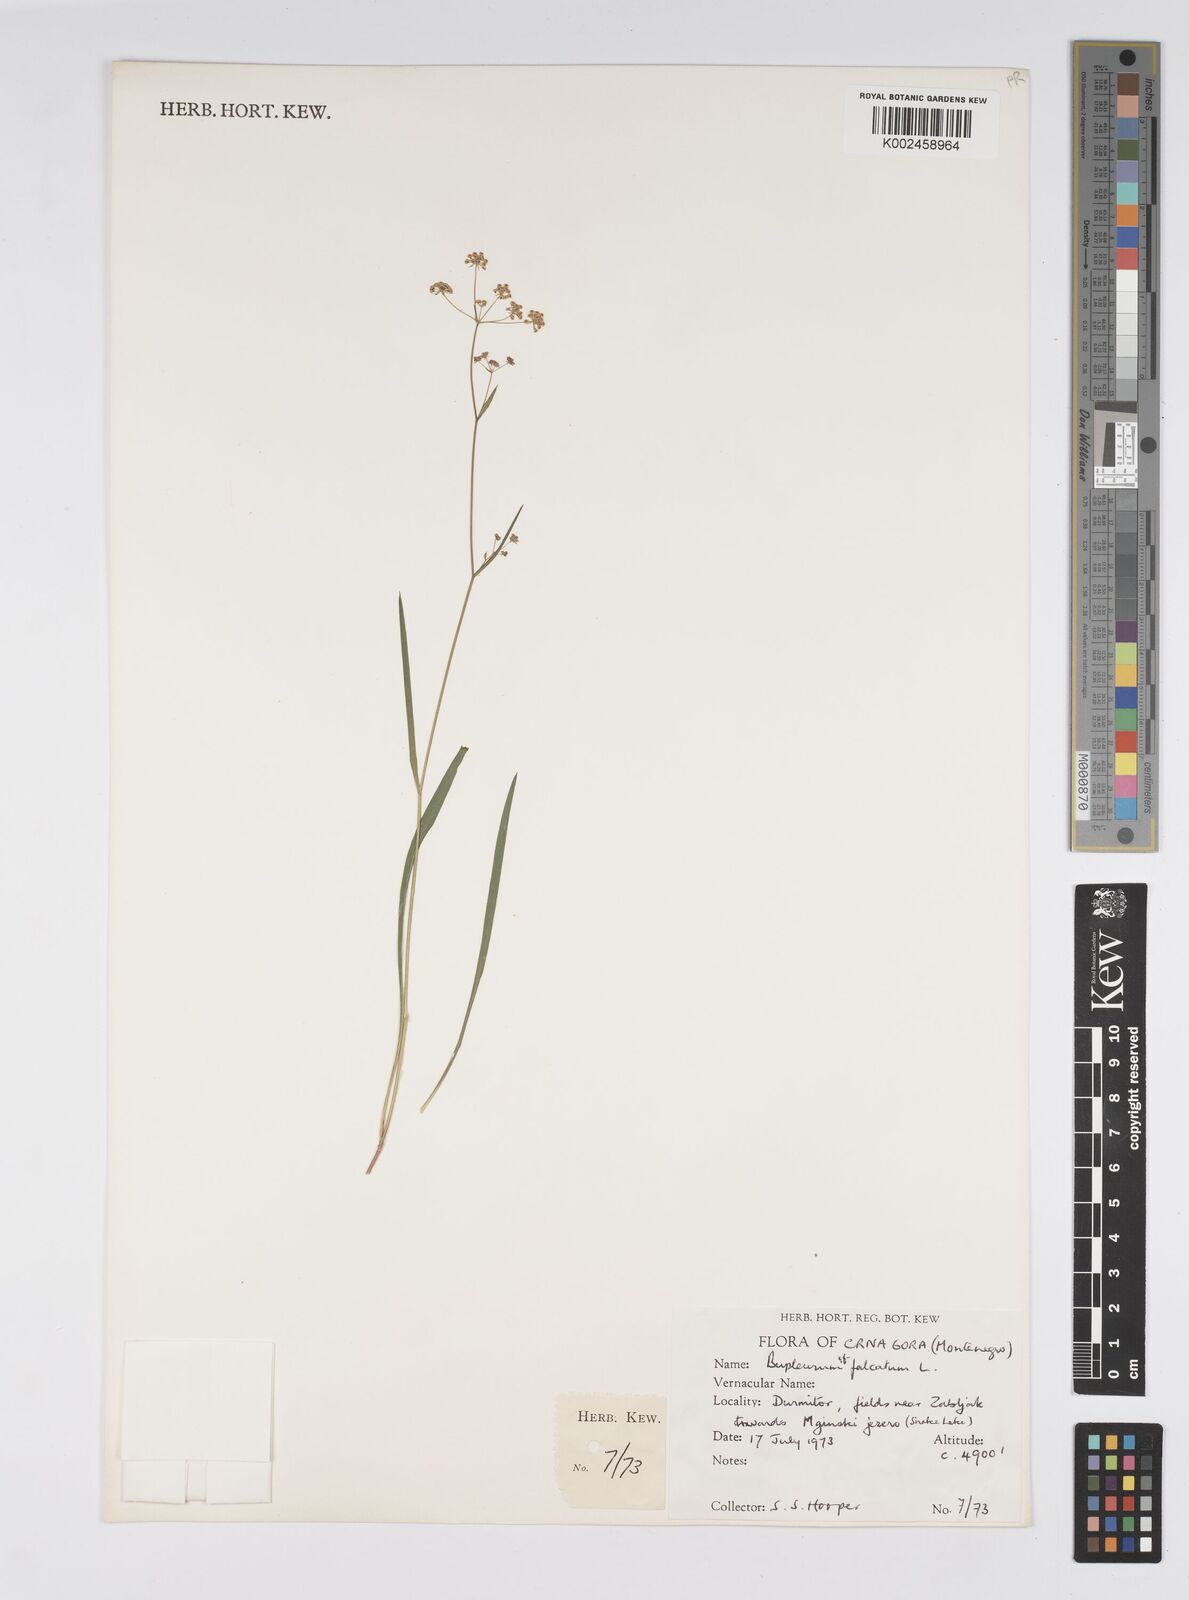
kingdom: Plantae
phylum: Tracheophyta
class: Magnoliopsida
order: Apiales
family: Apiaceae
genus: Bupleurum
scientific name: Bupleurum falcatum
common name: Sickle-leaved hare's-ear
